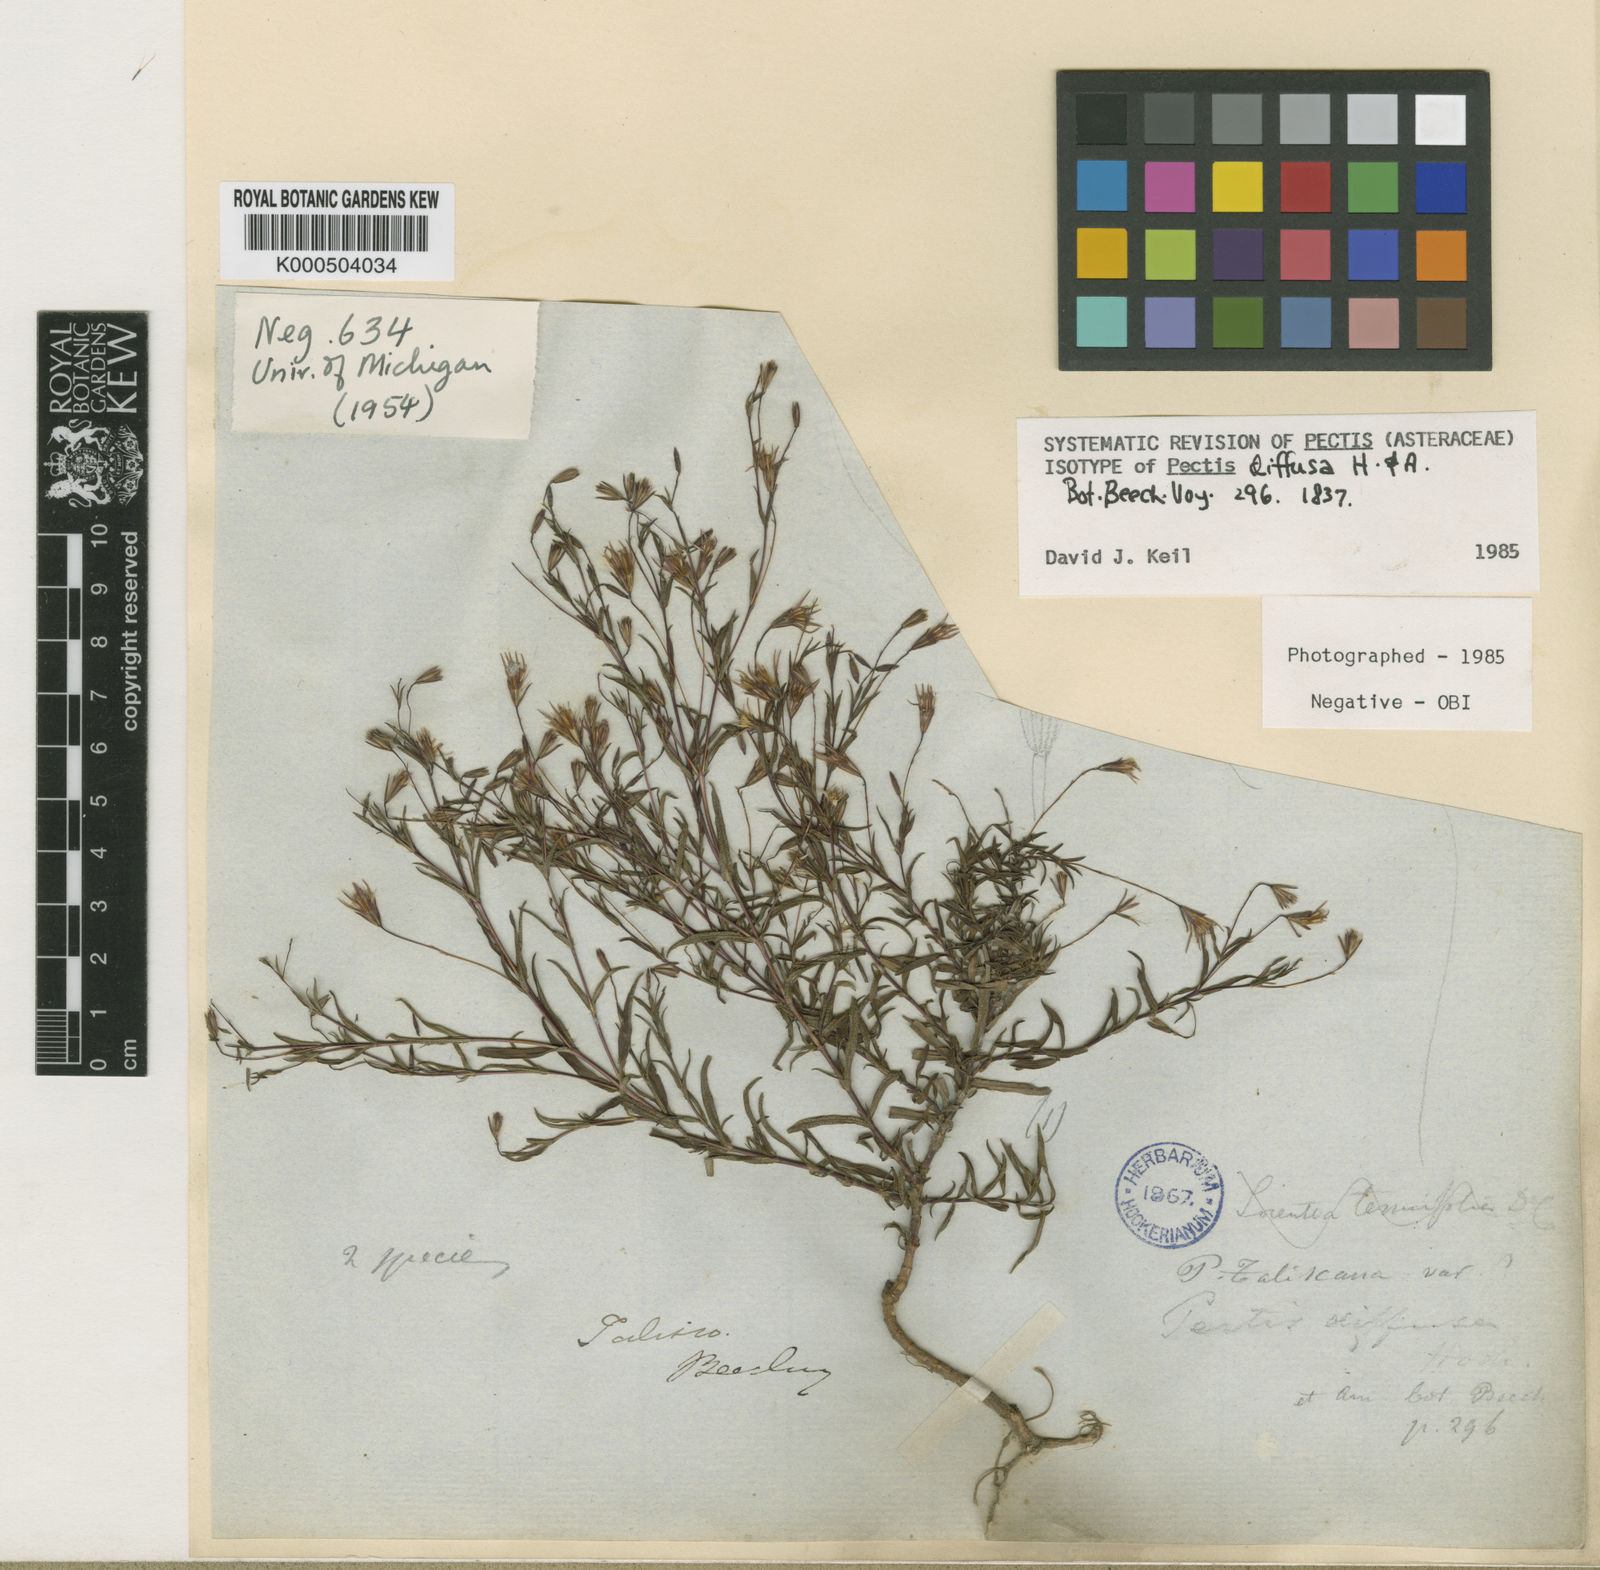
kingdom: Plantae
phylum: Tracheophyta
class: Magnoliopsida
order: Asterales
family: Asteraceae
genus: Pectis
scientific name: Pectis diffusa
